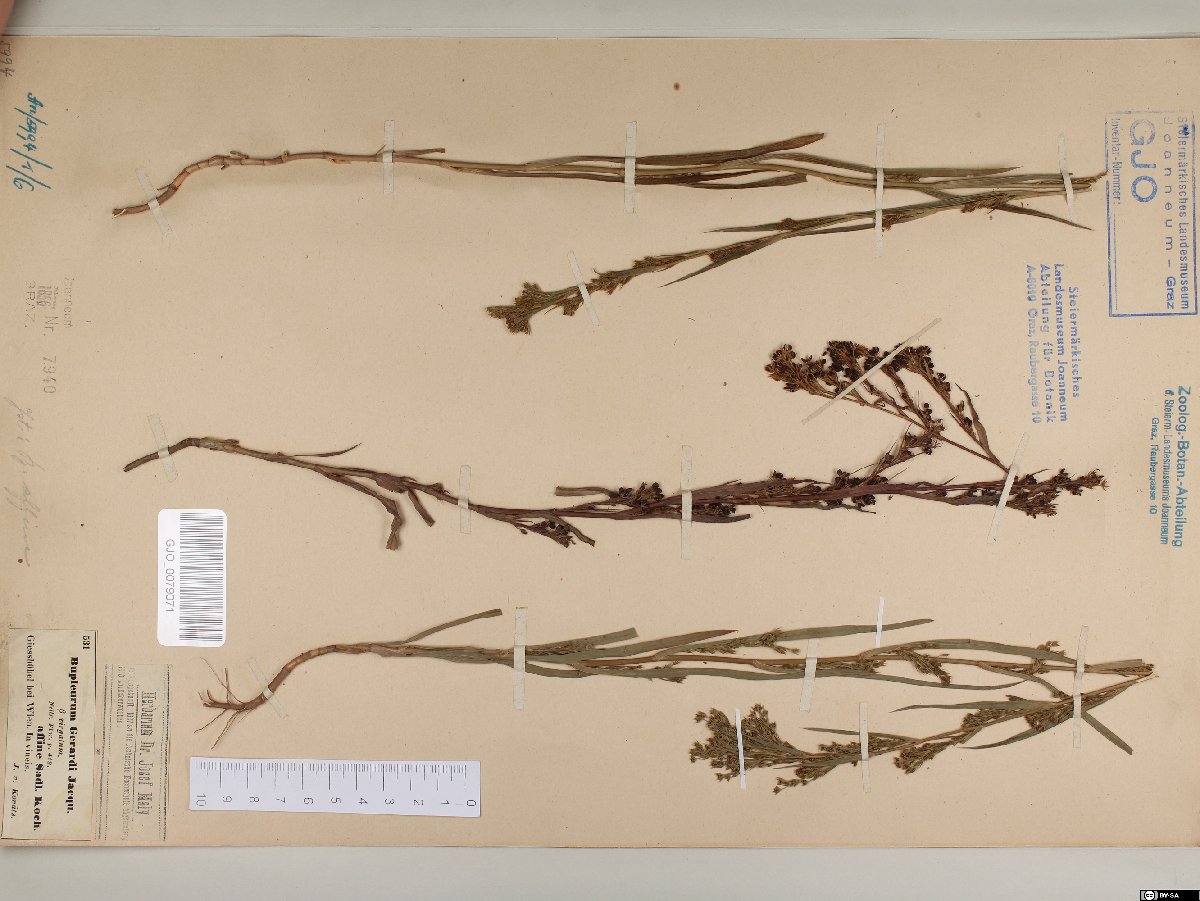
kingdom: Plantae
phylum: Tracheophyta
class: Magnoliopsida
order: Apiales
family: Apiaceae
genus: Bupleurum
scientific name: Bupleurum affine
